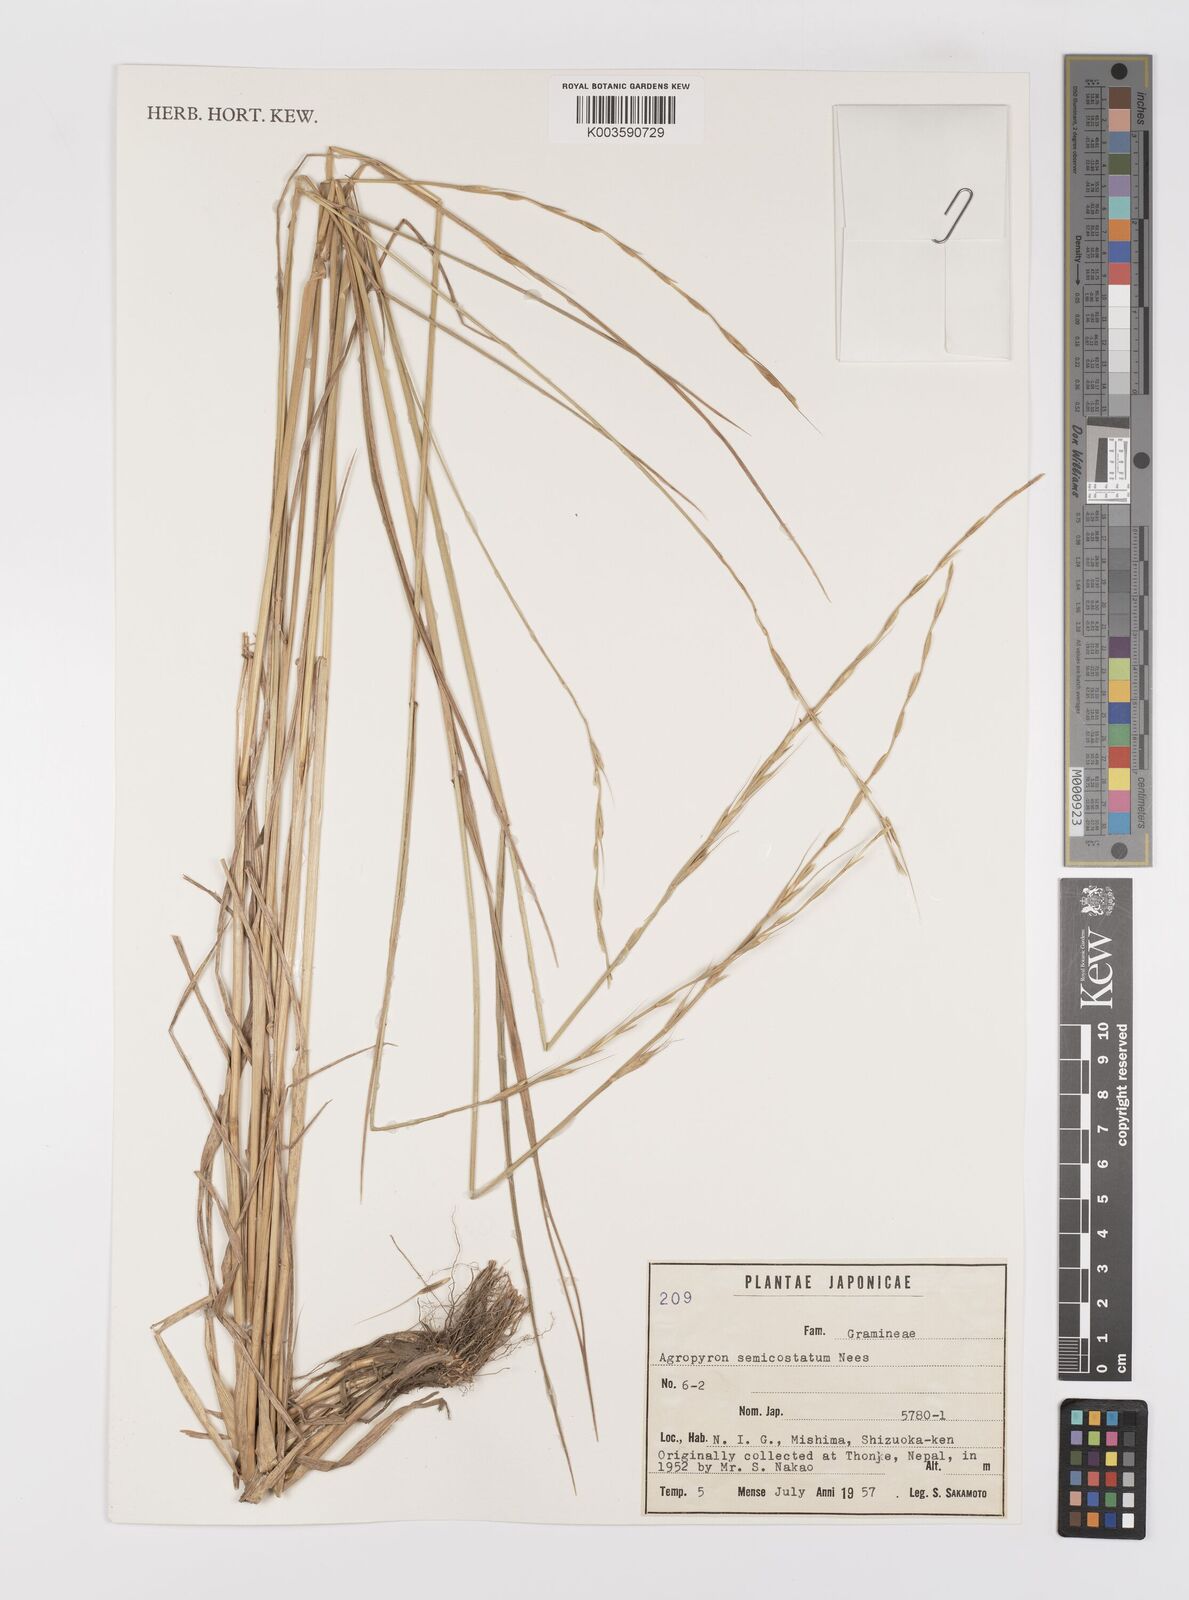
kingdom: Plantae
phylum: Tracheophyta
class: Liliopsida
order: Poales
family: Poaceae
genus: Elymus
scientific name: Elymus semicostatus
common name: Drooping wildrye
